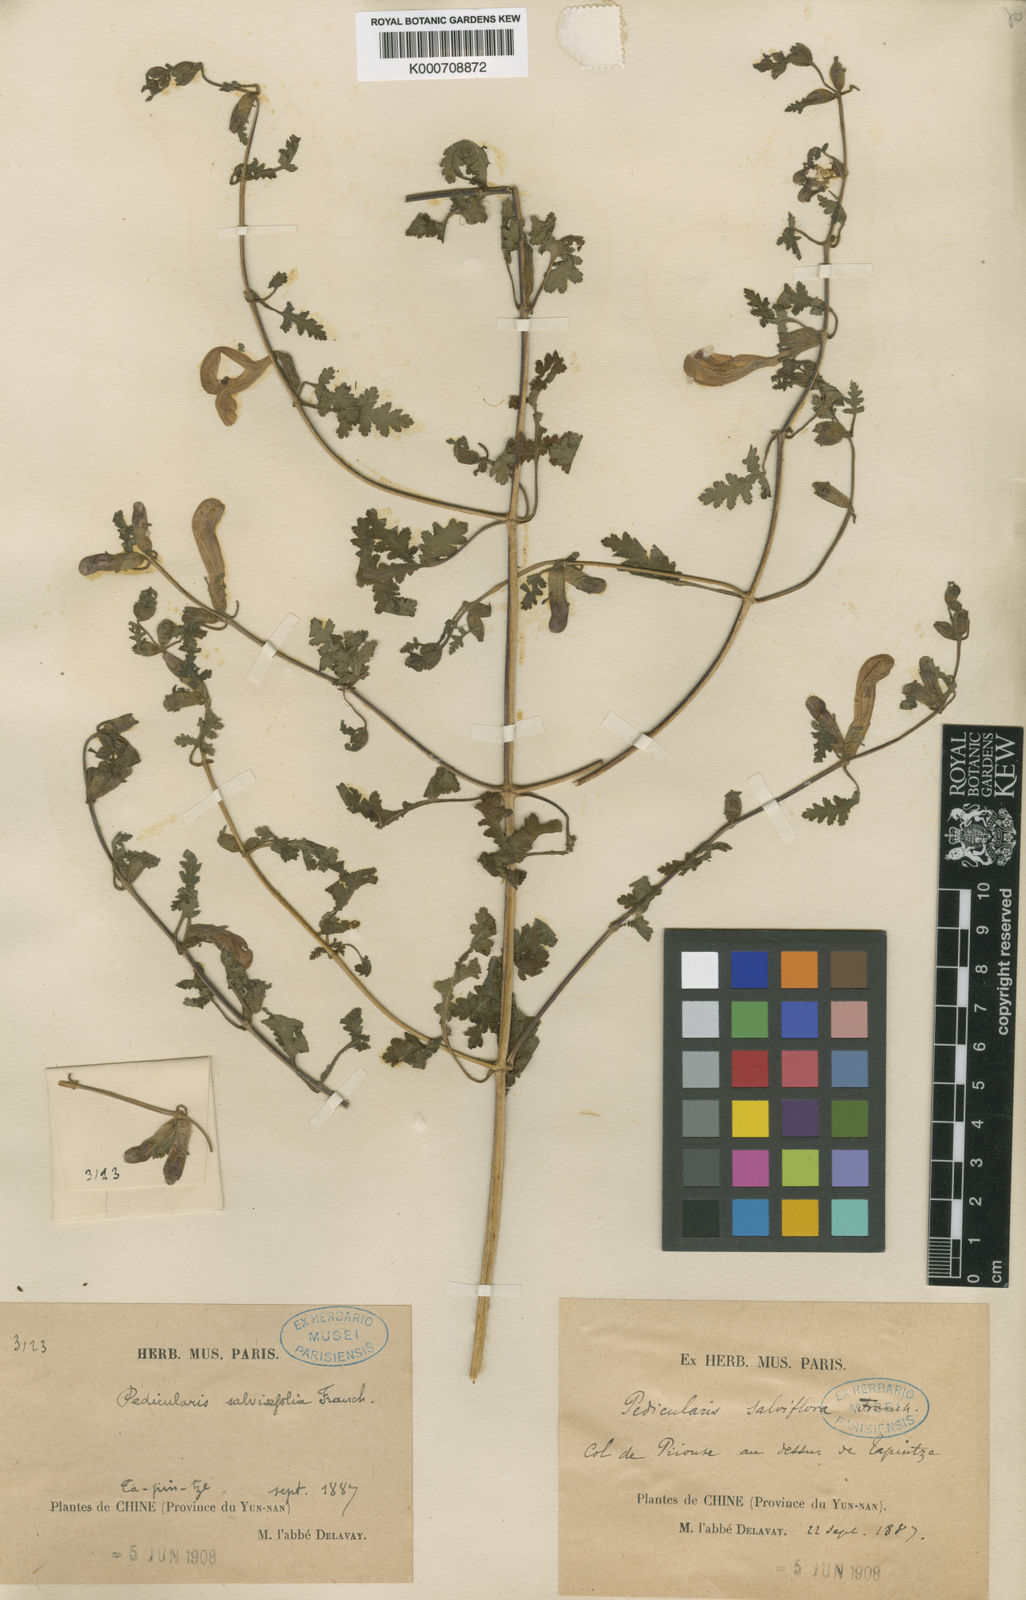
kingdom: Plantae
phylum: Tracheophyta
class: Magnoliopsida
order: Lamiales
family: Orobanchaceae
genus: Pedicularis
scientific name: Pedicularis
